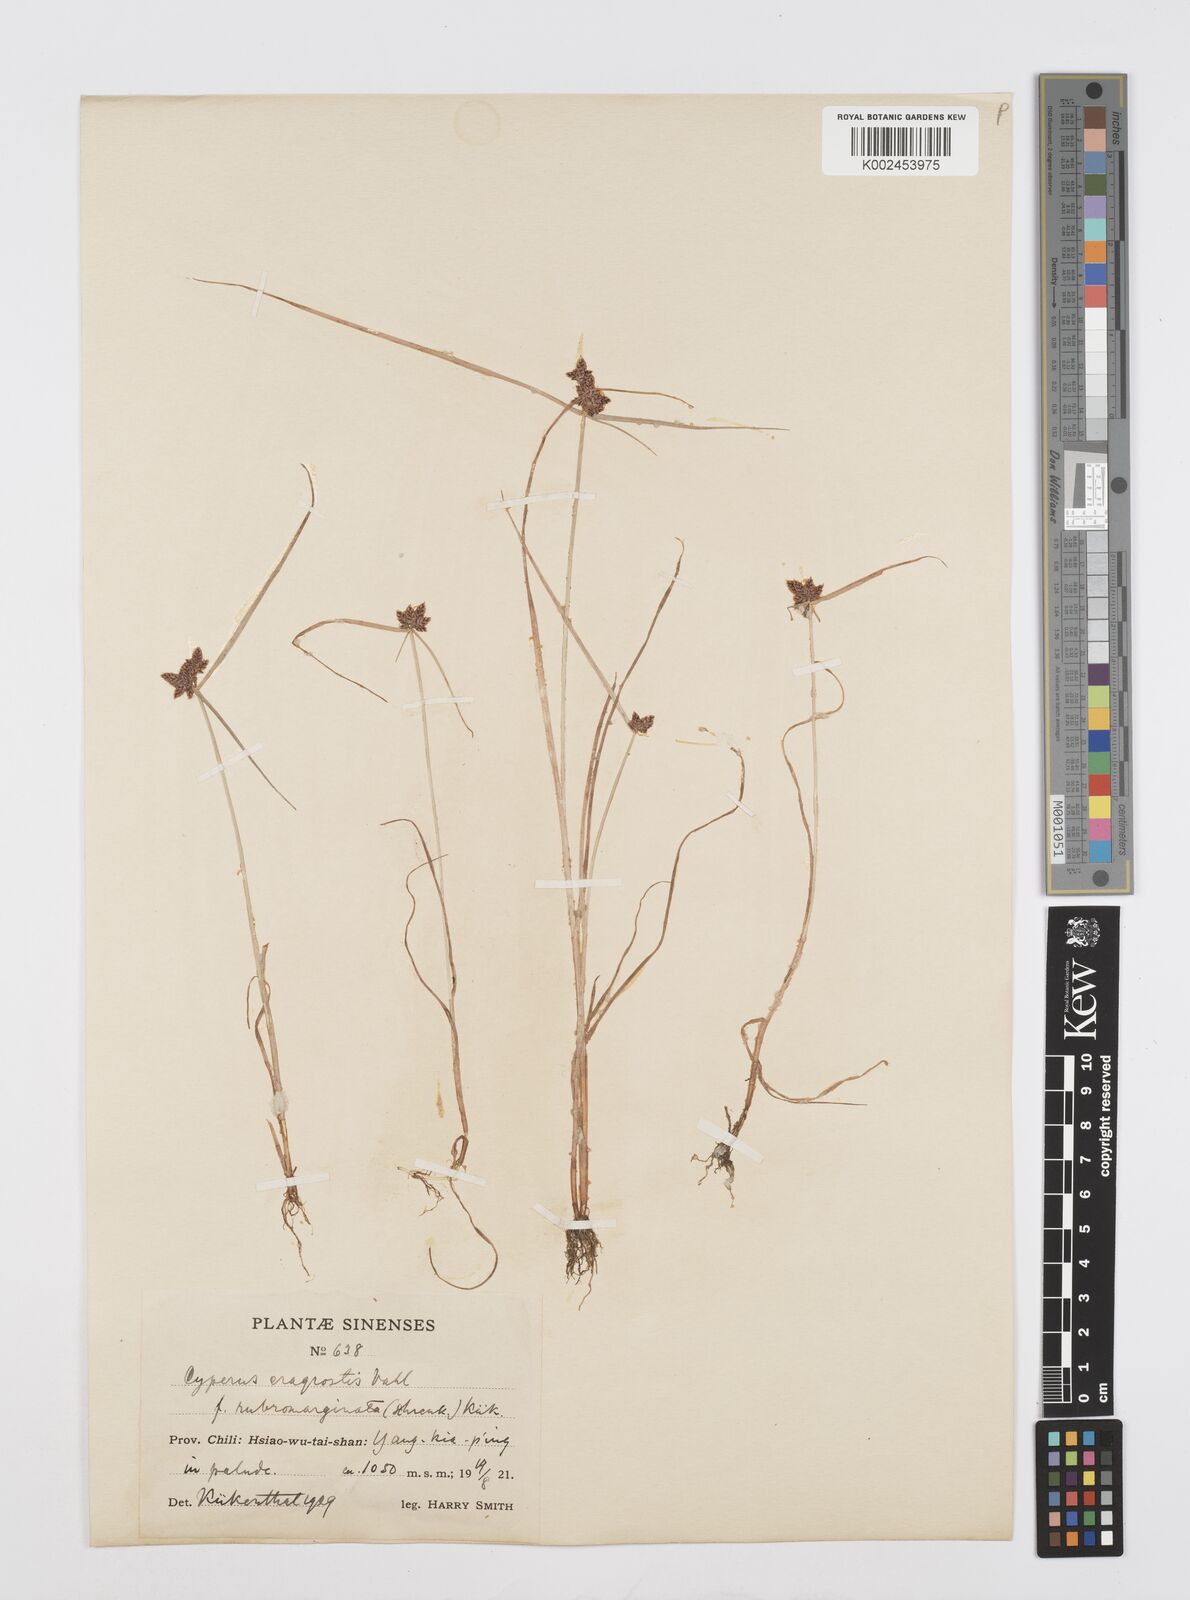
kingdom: Plantae
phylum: Tracheophyta
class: Liliopsida
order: Poales
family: Cyperaceae
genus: Cyperus
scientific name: Cyperus sanguinolentus
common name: Purpleglume flatsedge
